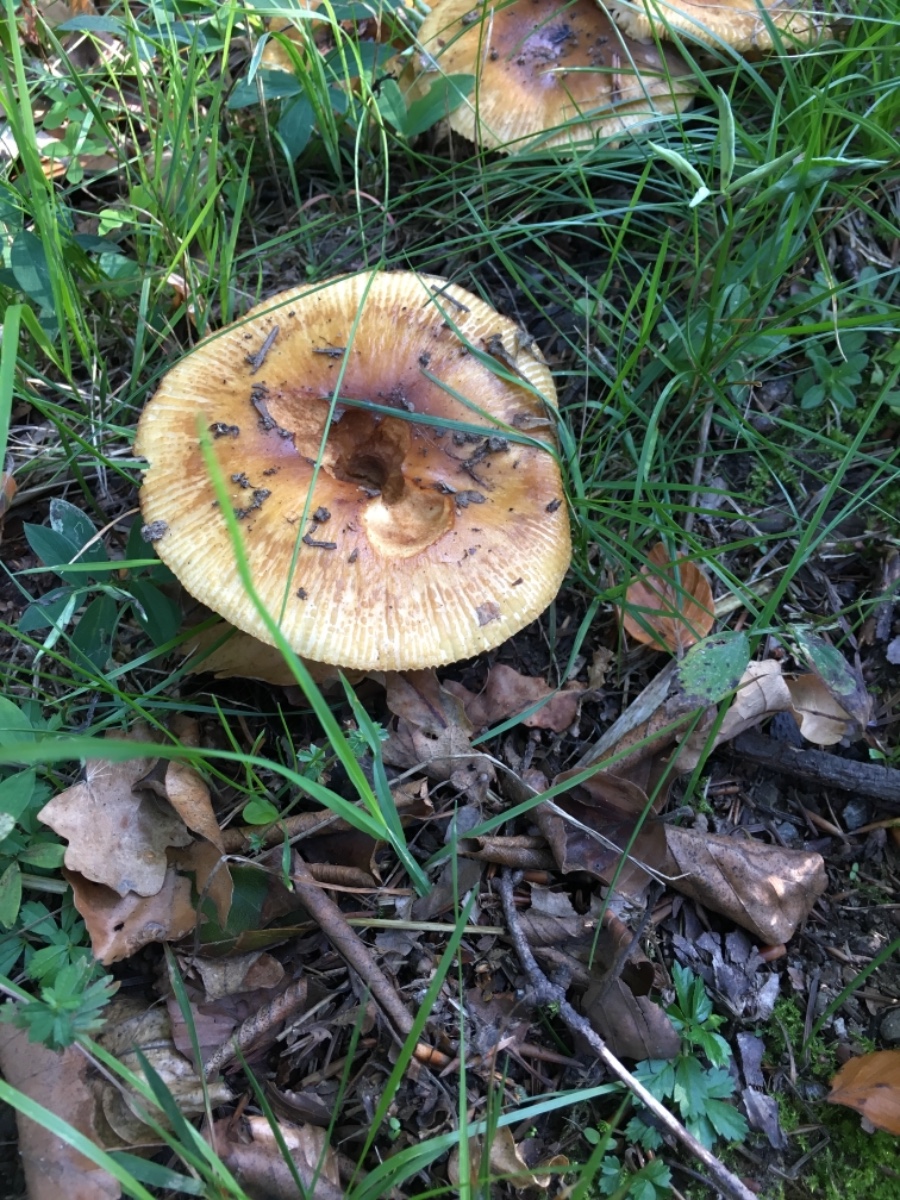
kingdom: Fungi
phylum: Basidiomycota
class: Agaricomycetes
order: Russulales
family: Russulaceae
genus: Russula
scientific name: Russula
